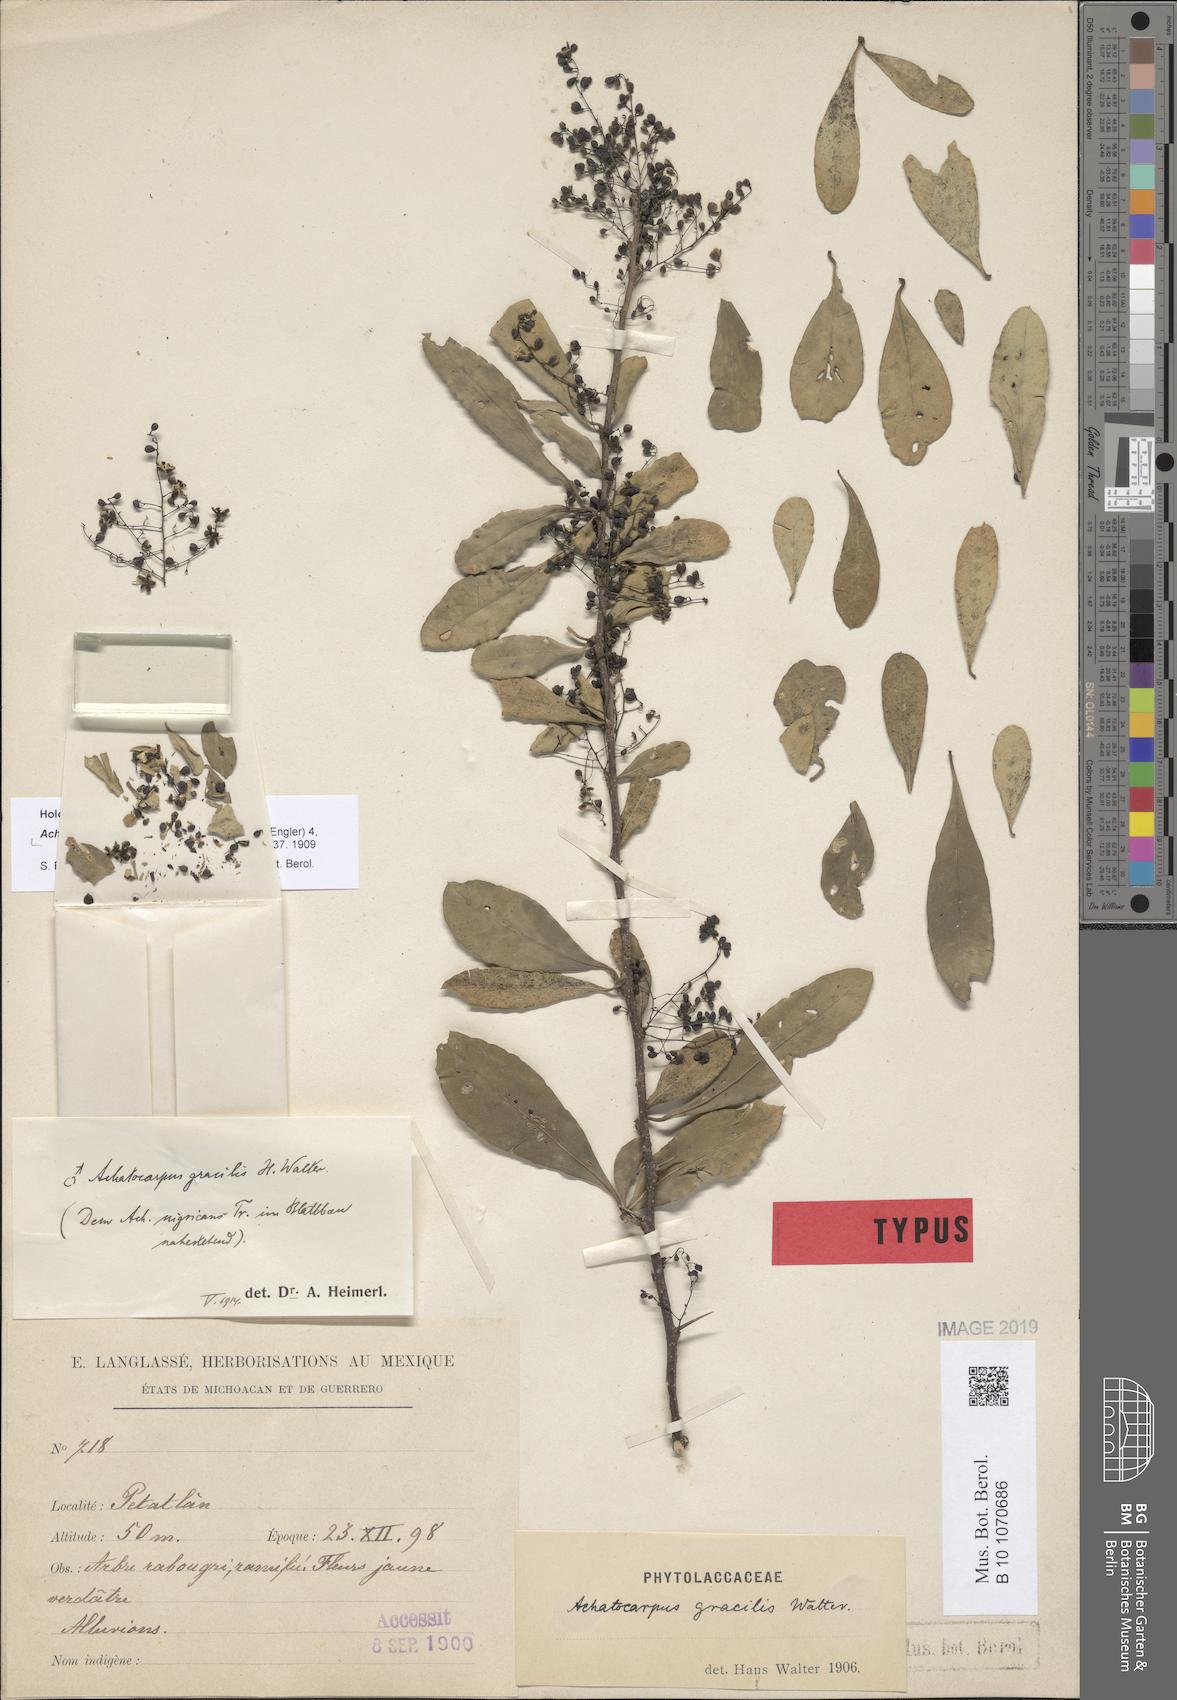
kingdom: Plantae
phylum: Tracheophyta
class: Magnoliopsida
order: Caryophyllales
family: Achatocarpaceae
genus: Achatocarpus
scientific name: Achatocarpus gracilis
